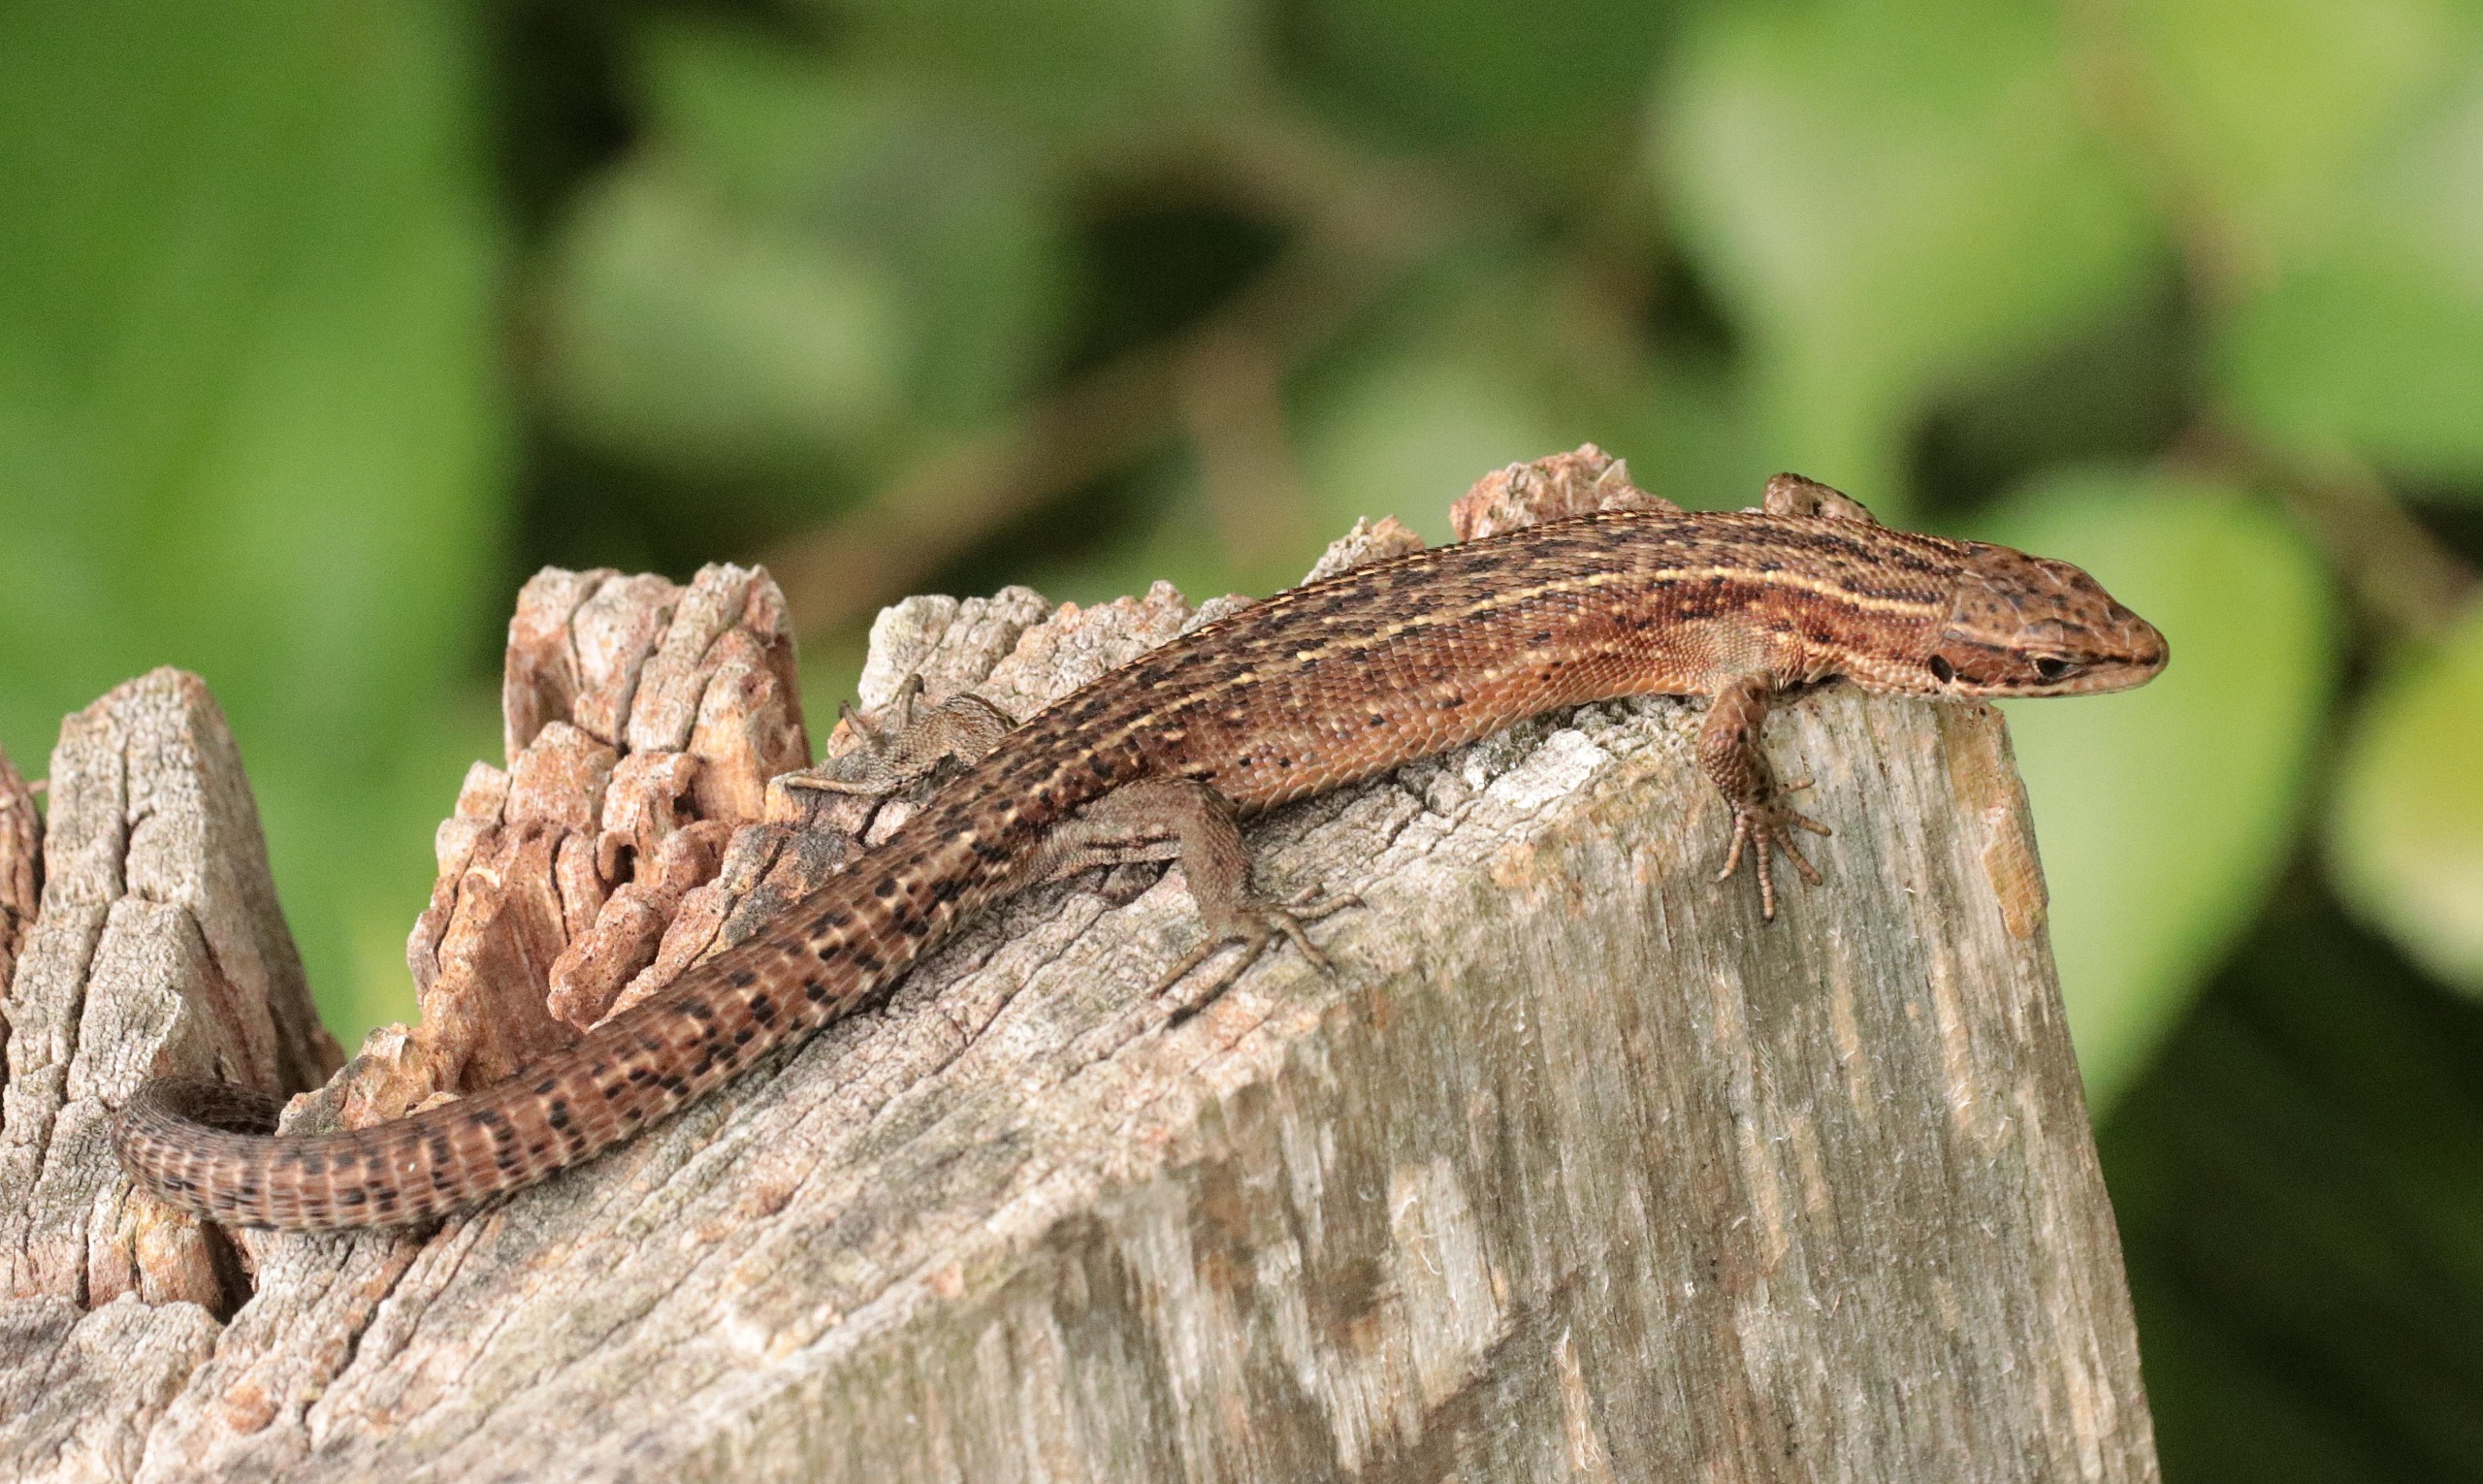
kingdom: Animalia
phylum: Chordata
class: Squamata
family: Lacertidae
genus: Zootoca
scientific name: Zootoca vivipara
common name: Skovfirben
